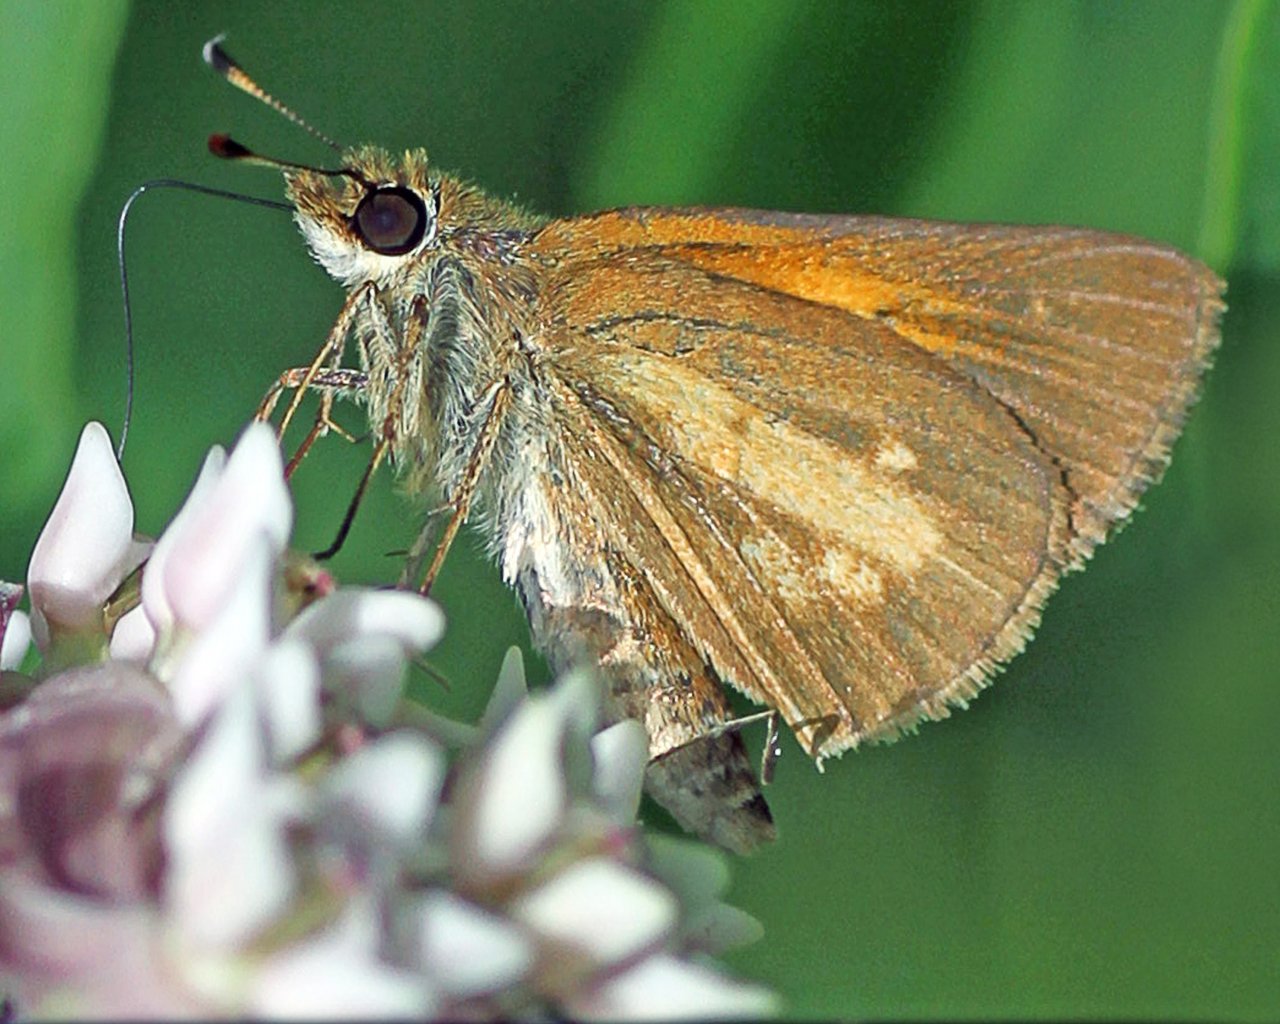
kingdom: Animalia
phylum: Arthropoda
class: Insecta
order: Lepidoptera
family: Hesperiidae
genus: Poanes
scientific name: Poanes viator
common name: Broad-winged Skipper
